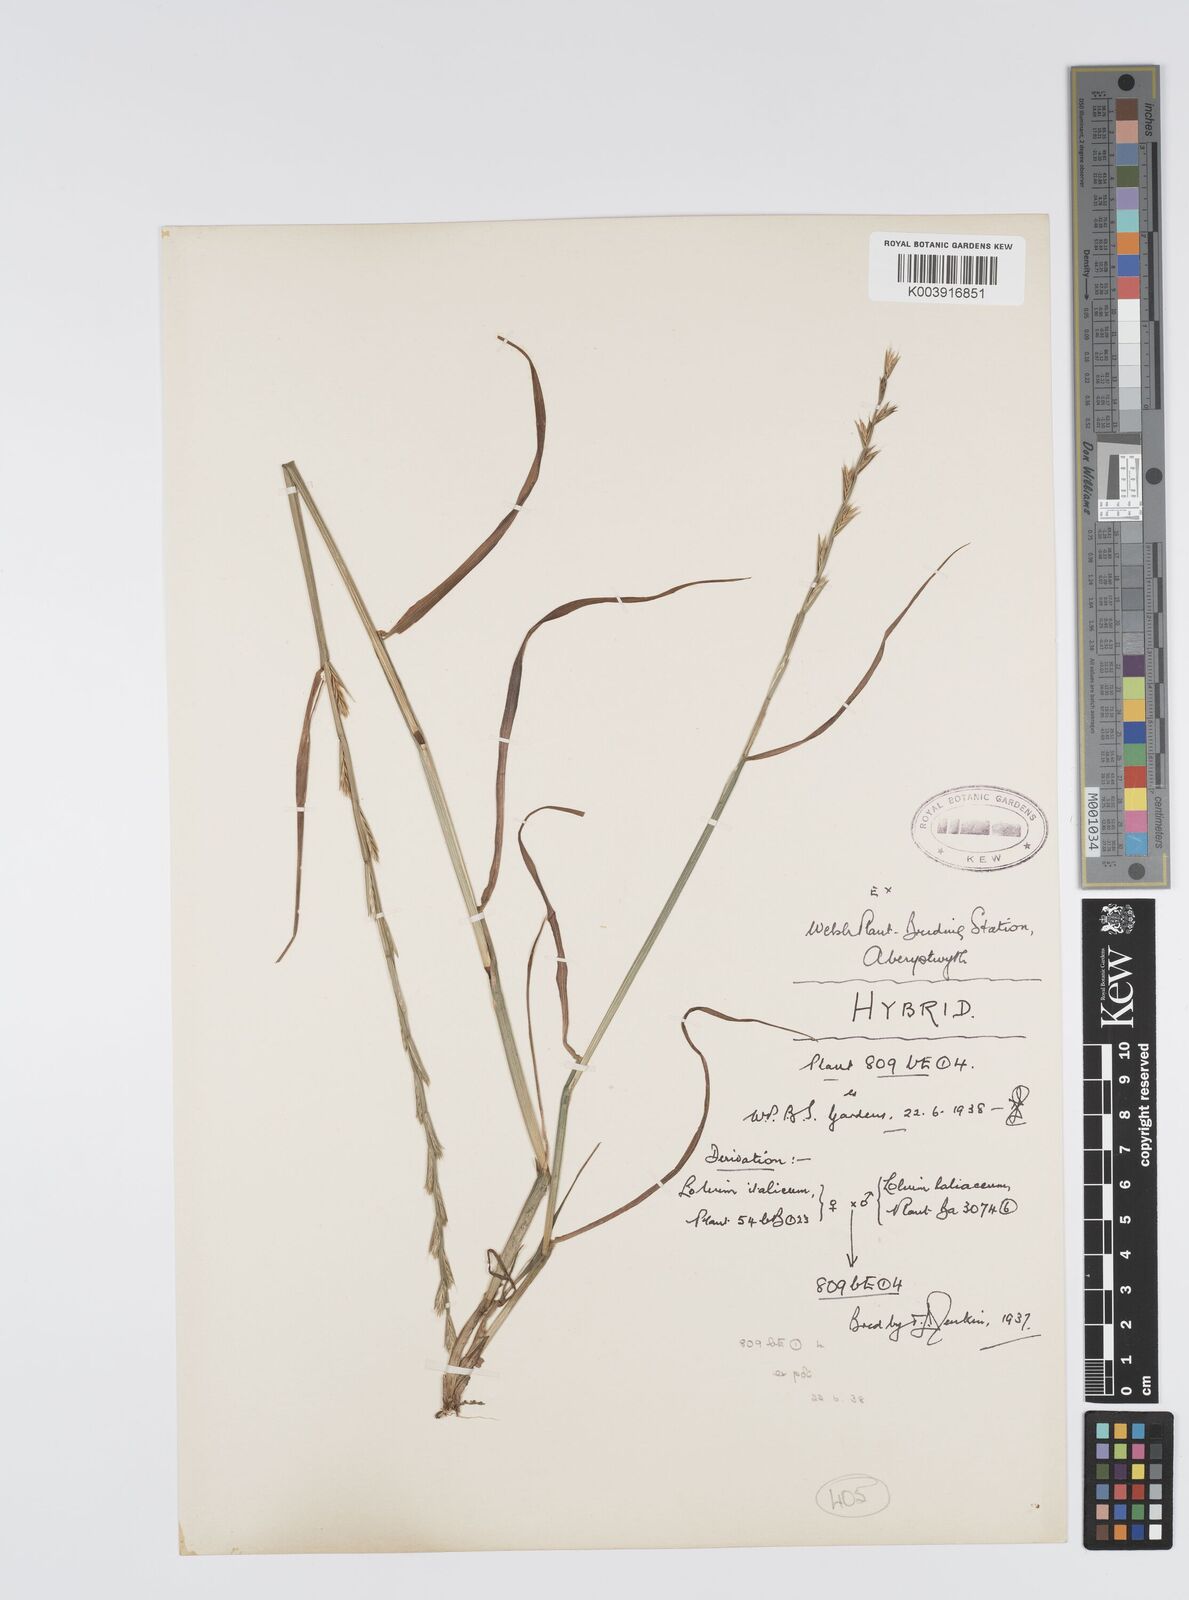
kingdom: Plantae
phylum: Tracheophyta
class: Liliopsida
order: Poales
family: Poaceae
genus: Lolium
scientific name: Lolium multiflorum
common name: Annual ryegrass
